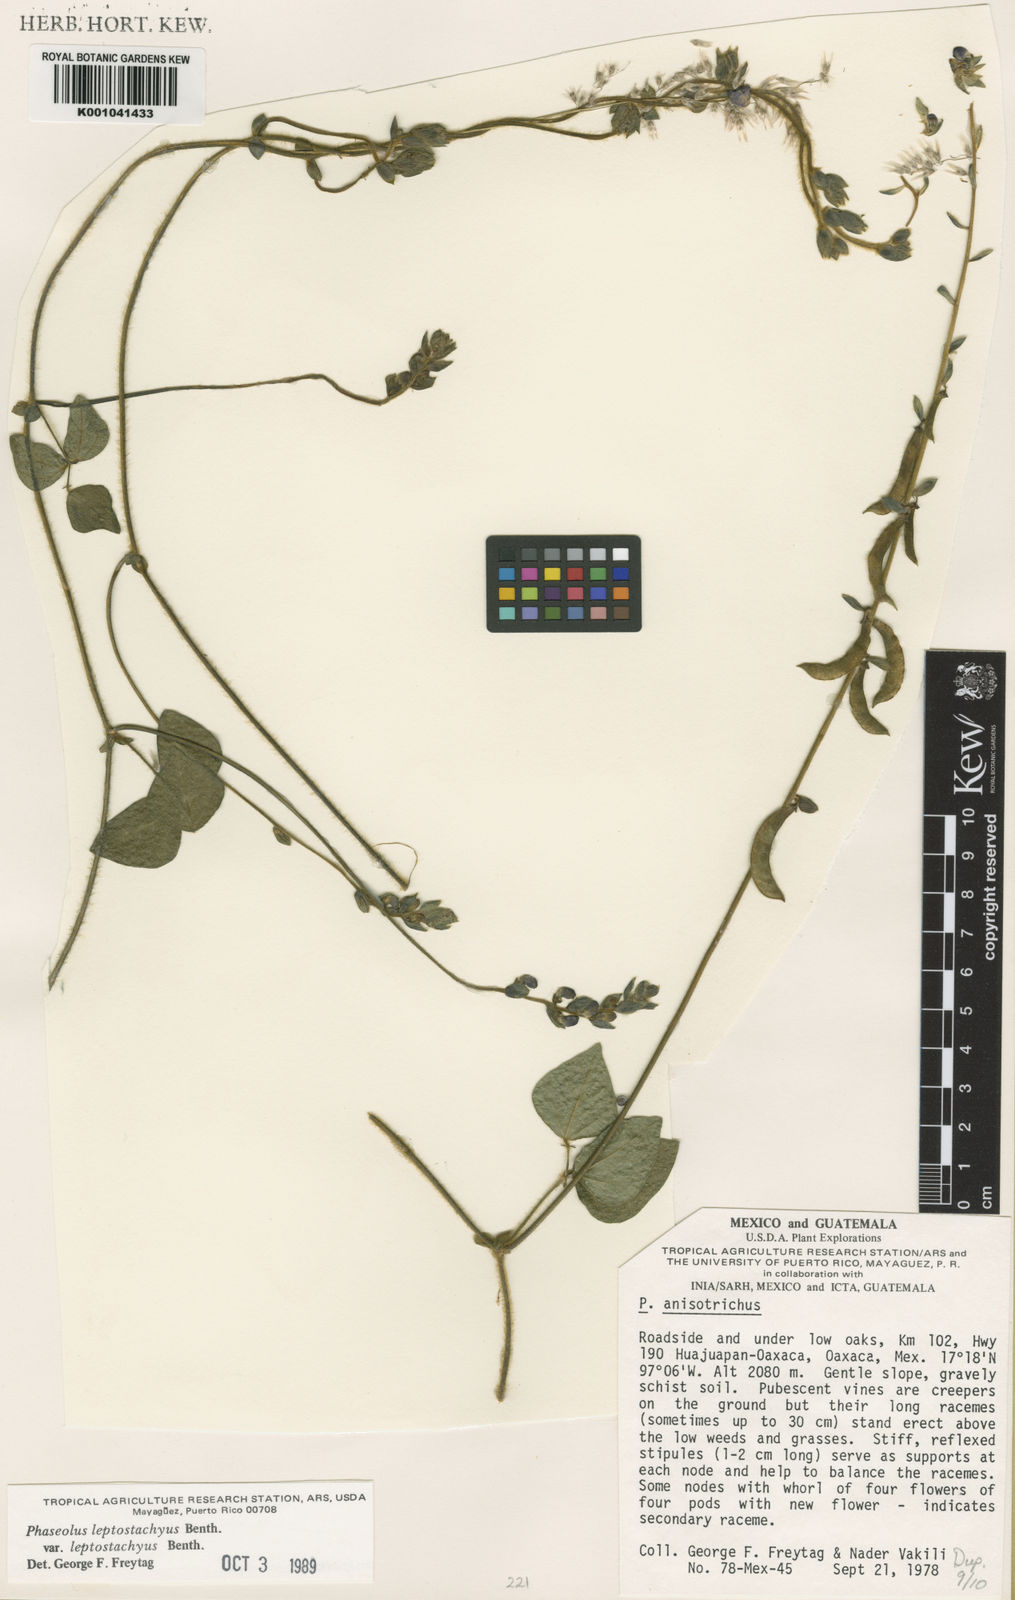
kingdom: Plantae
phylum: Tracheophyta
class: Magnoliopsida
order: Fabales
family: Fabaceae
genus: Phaseolus
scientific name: Phaseolus
